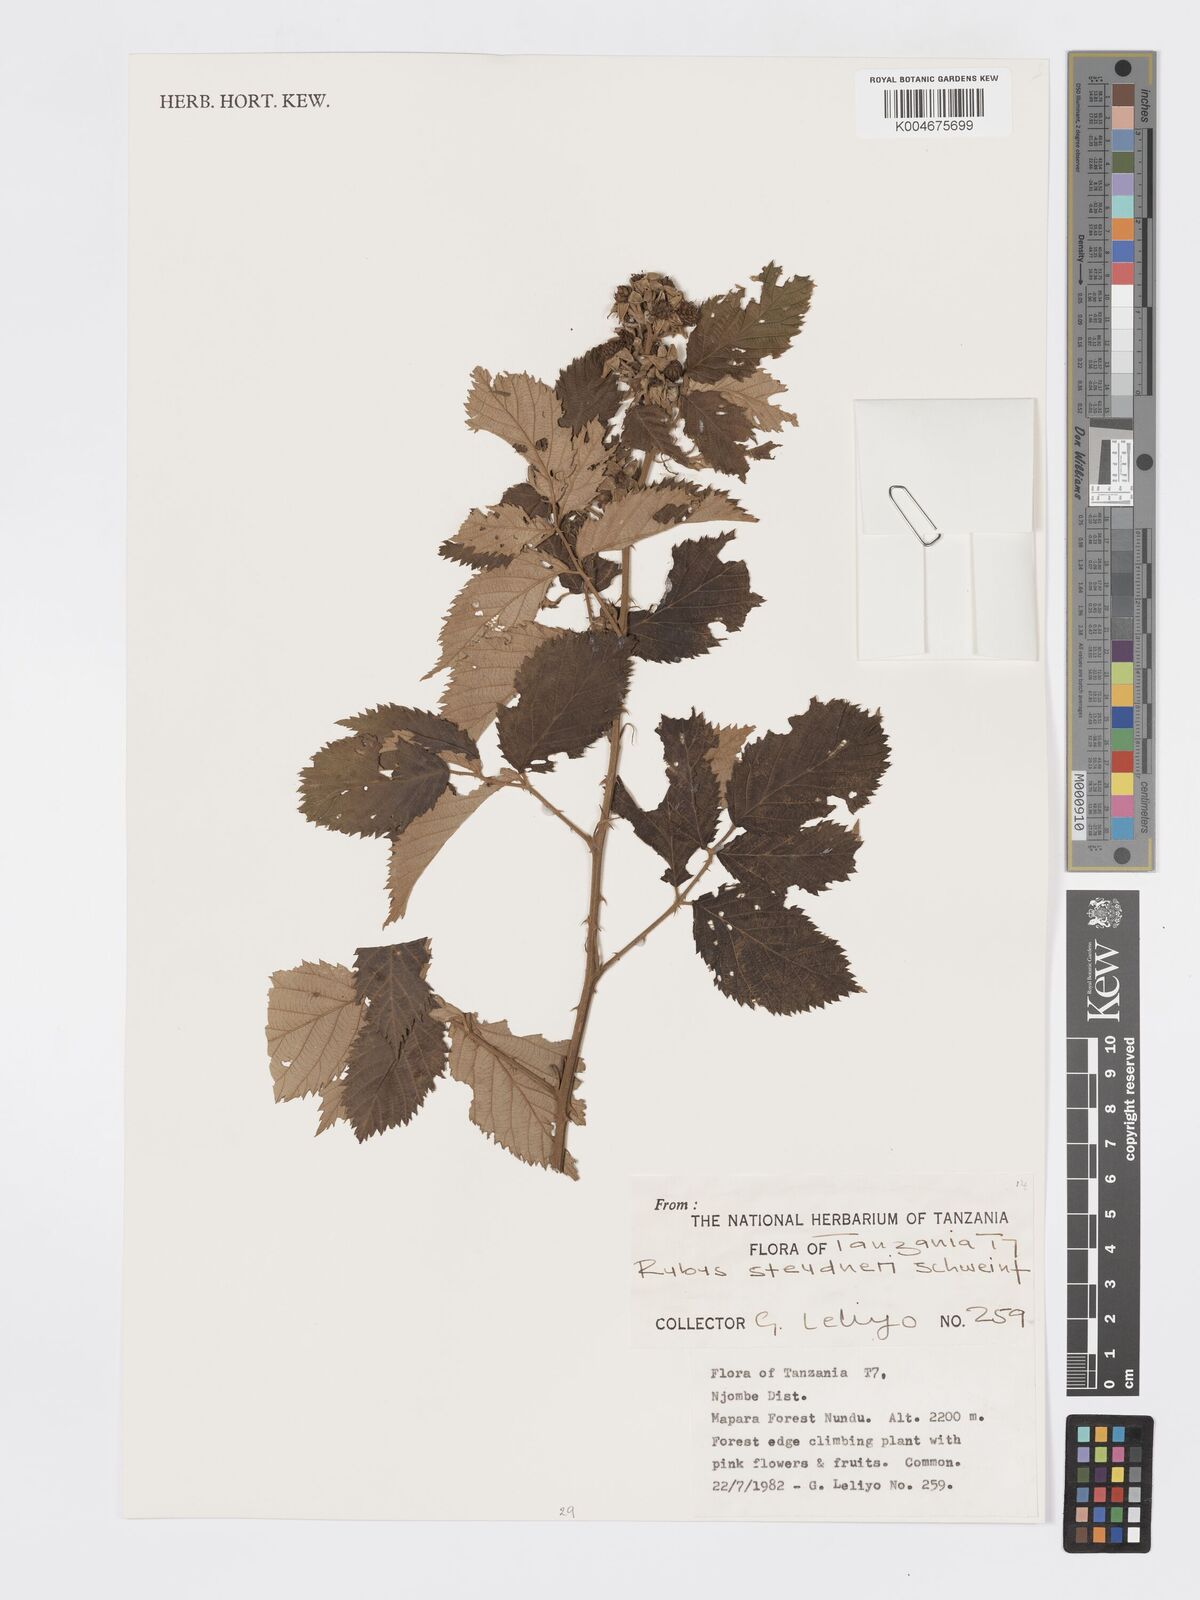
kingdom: Plantae
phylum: Tracheophyta
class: Magnoliopsida
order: Rosales
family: Rosaceae
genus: Rubus
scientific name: Rubus steudneri
